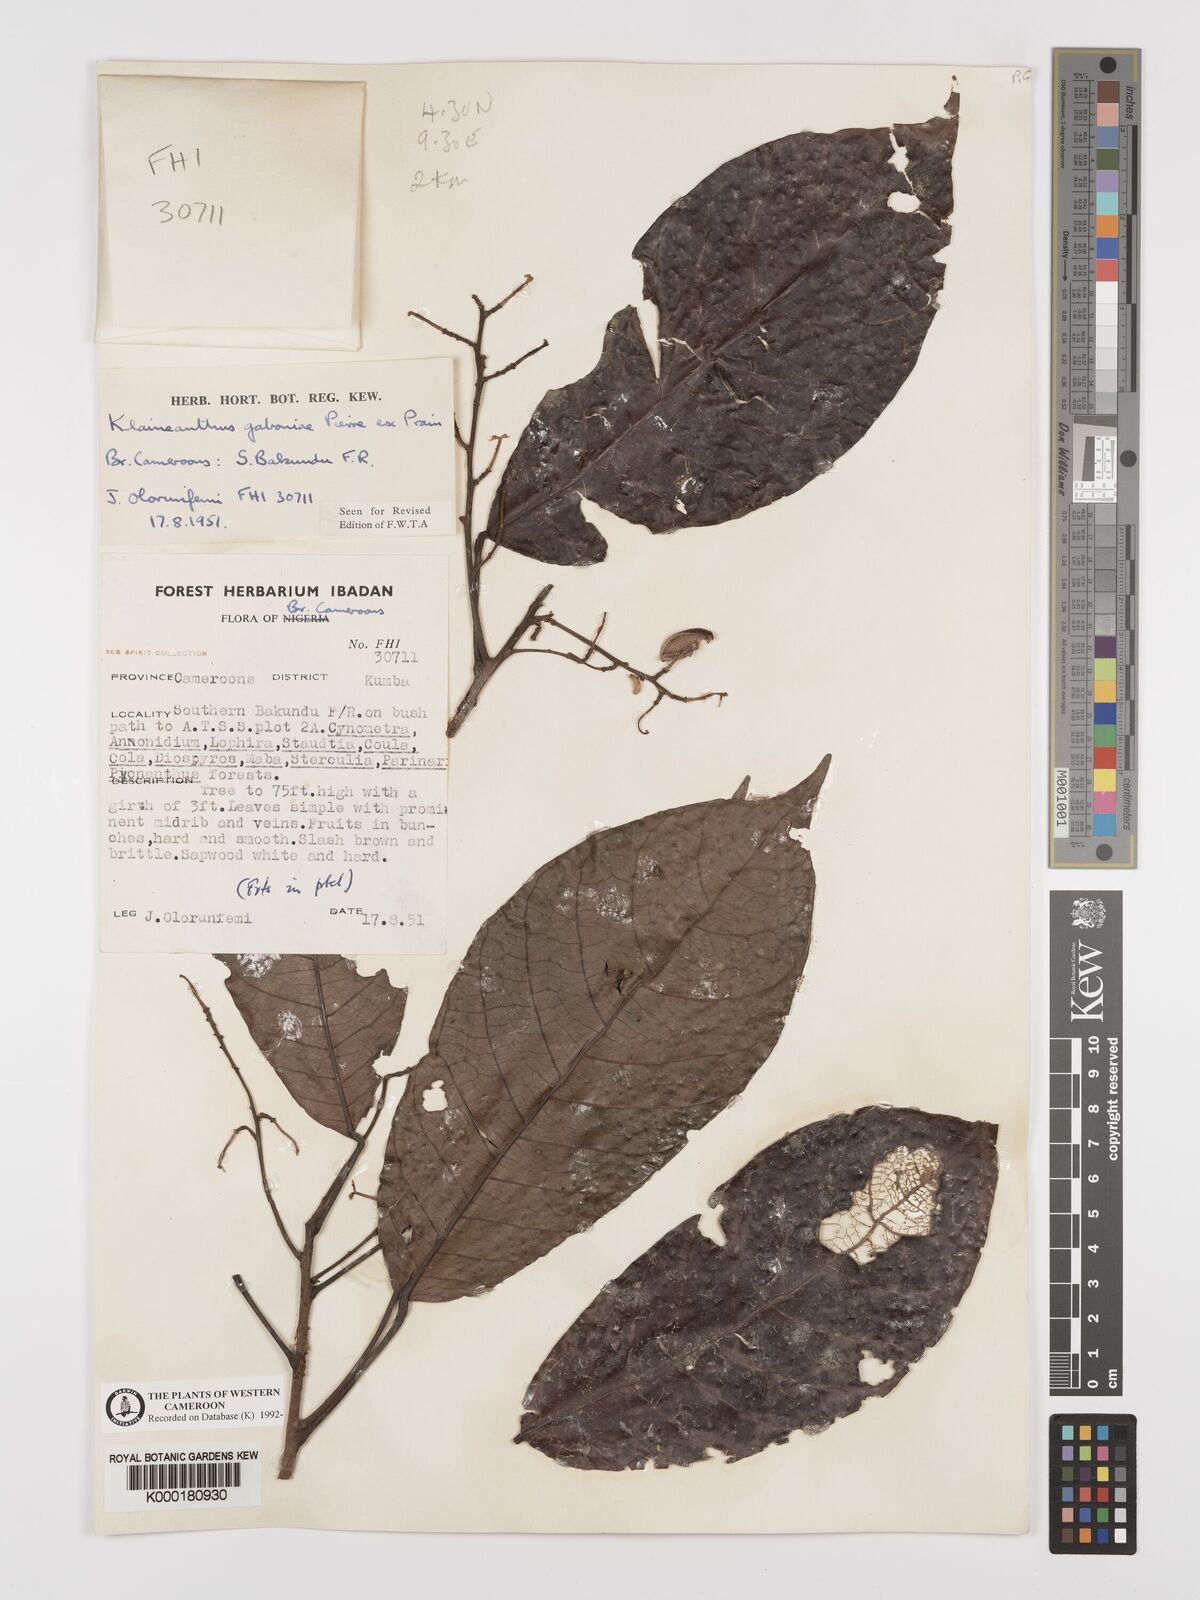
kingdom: Plantae
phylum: Tracheophyta
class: Magnoliopsida
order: Malpighiales
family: Euphorbiaceae
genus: Klaineanthus
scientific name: Klaineanthus
